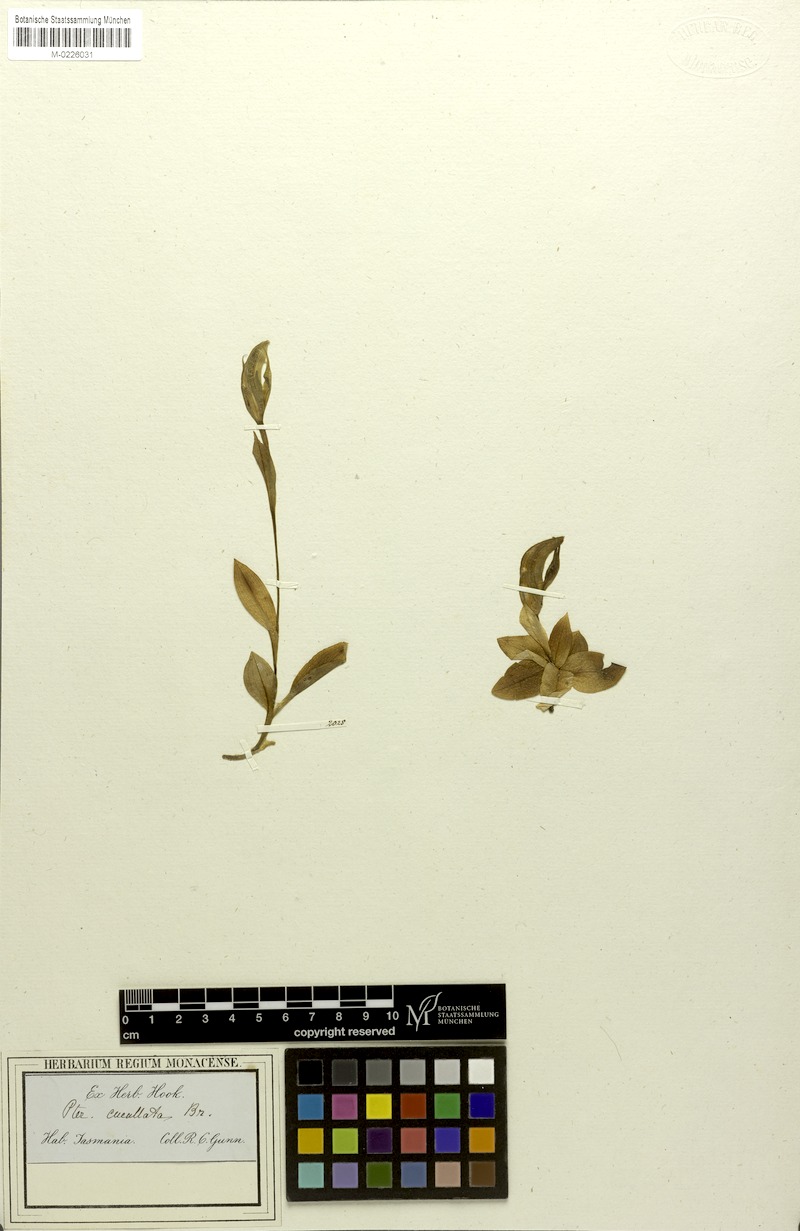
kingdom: Plantae
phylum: Tracheophyta
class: Liliopsida
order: Asparagales
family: Orchidaceae
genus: Pterostylis
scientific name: Pterostylis cucullata
